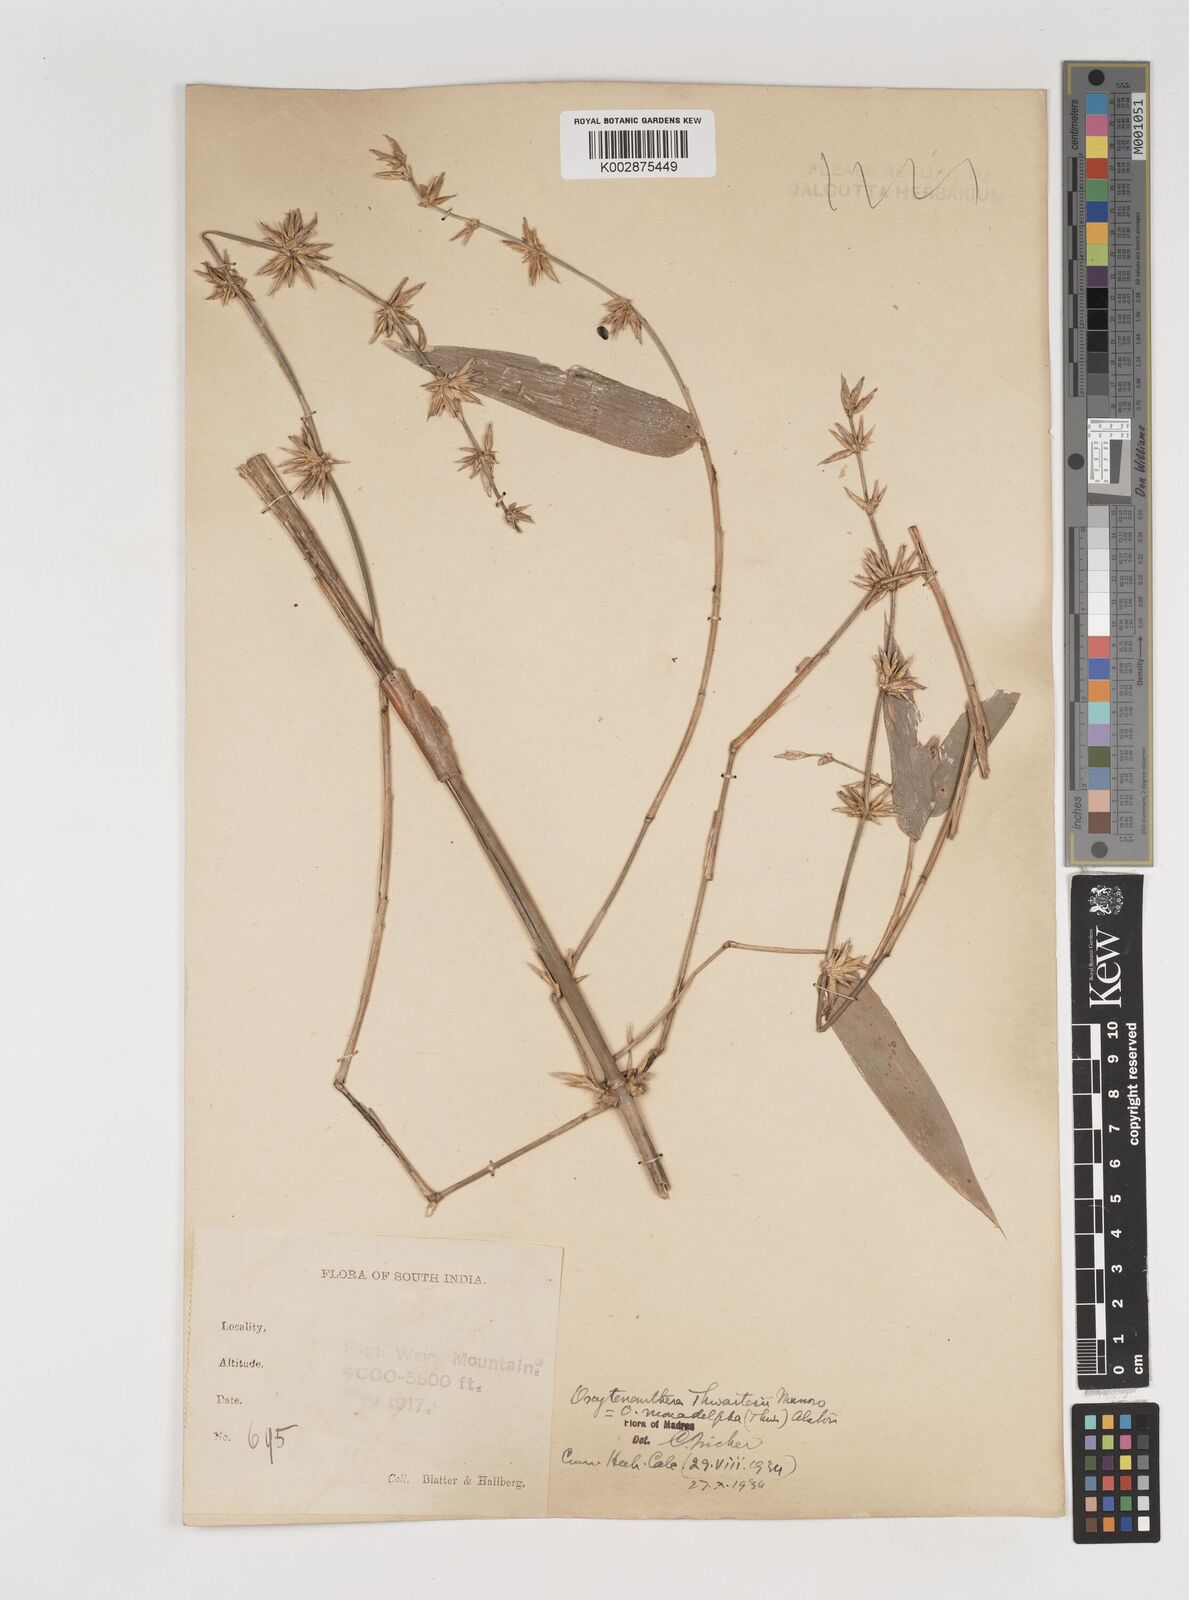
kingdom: Plantae
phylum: Tracheophyta
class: Liliopsida
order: Poales
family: Poaceae
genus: Pseudoxytenanthera
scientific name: Pseudoxytenanthera monadelpha
